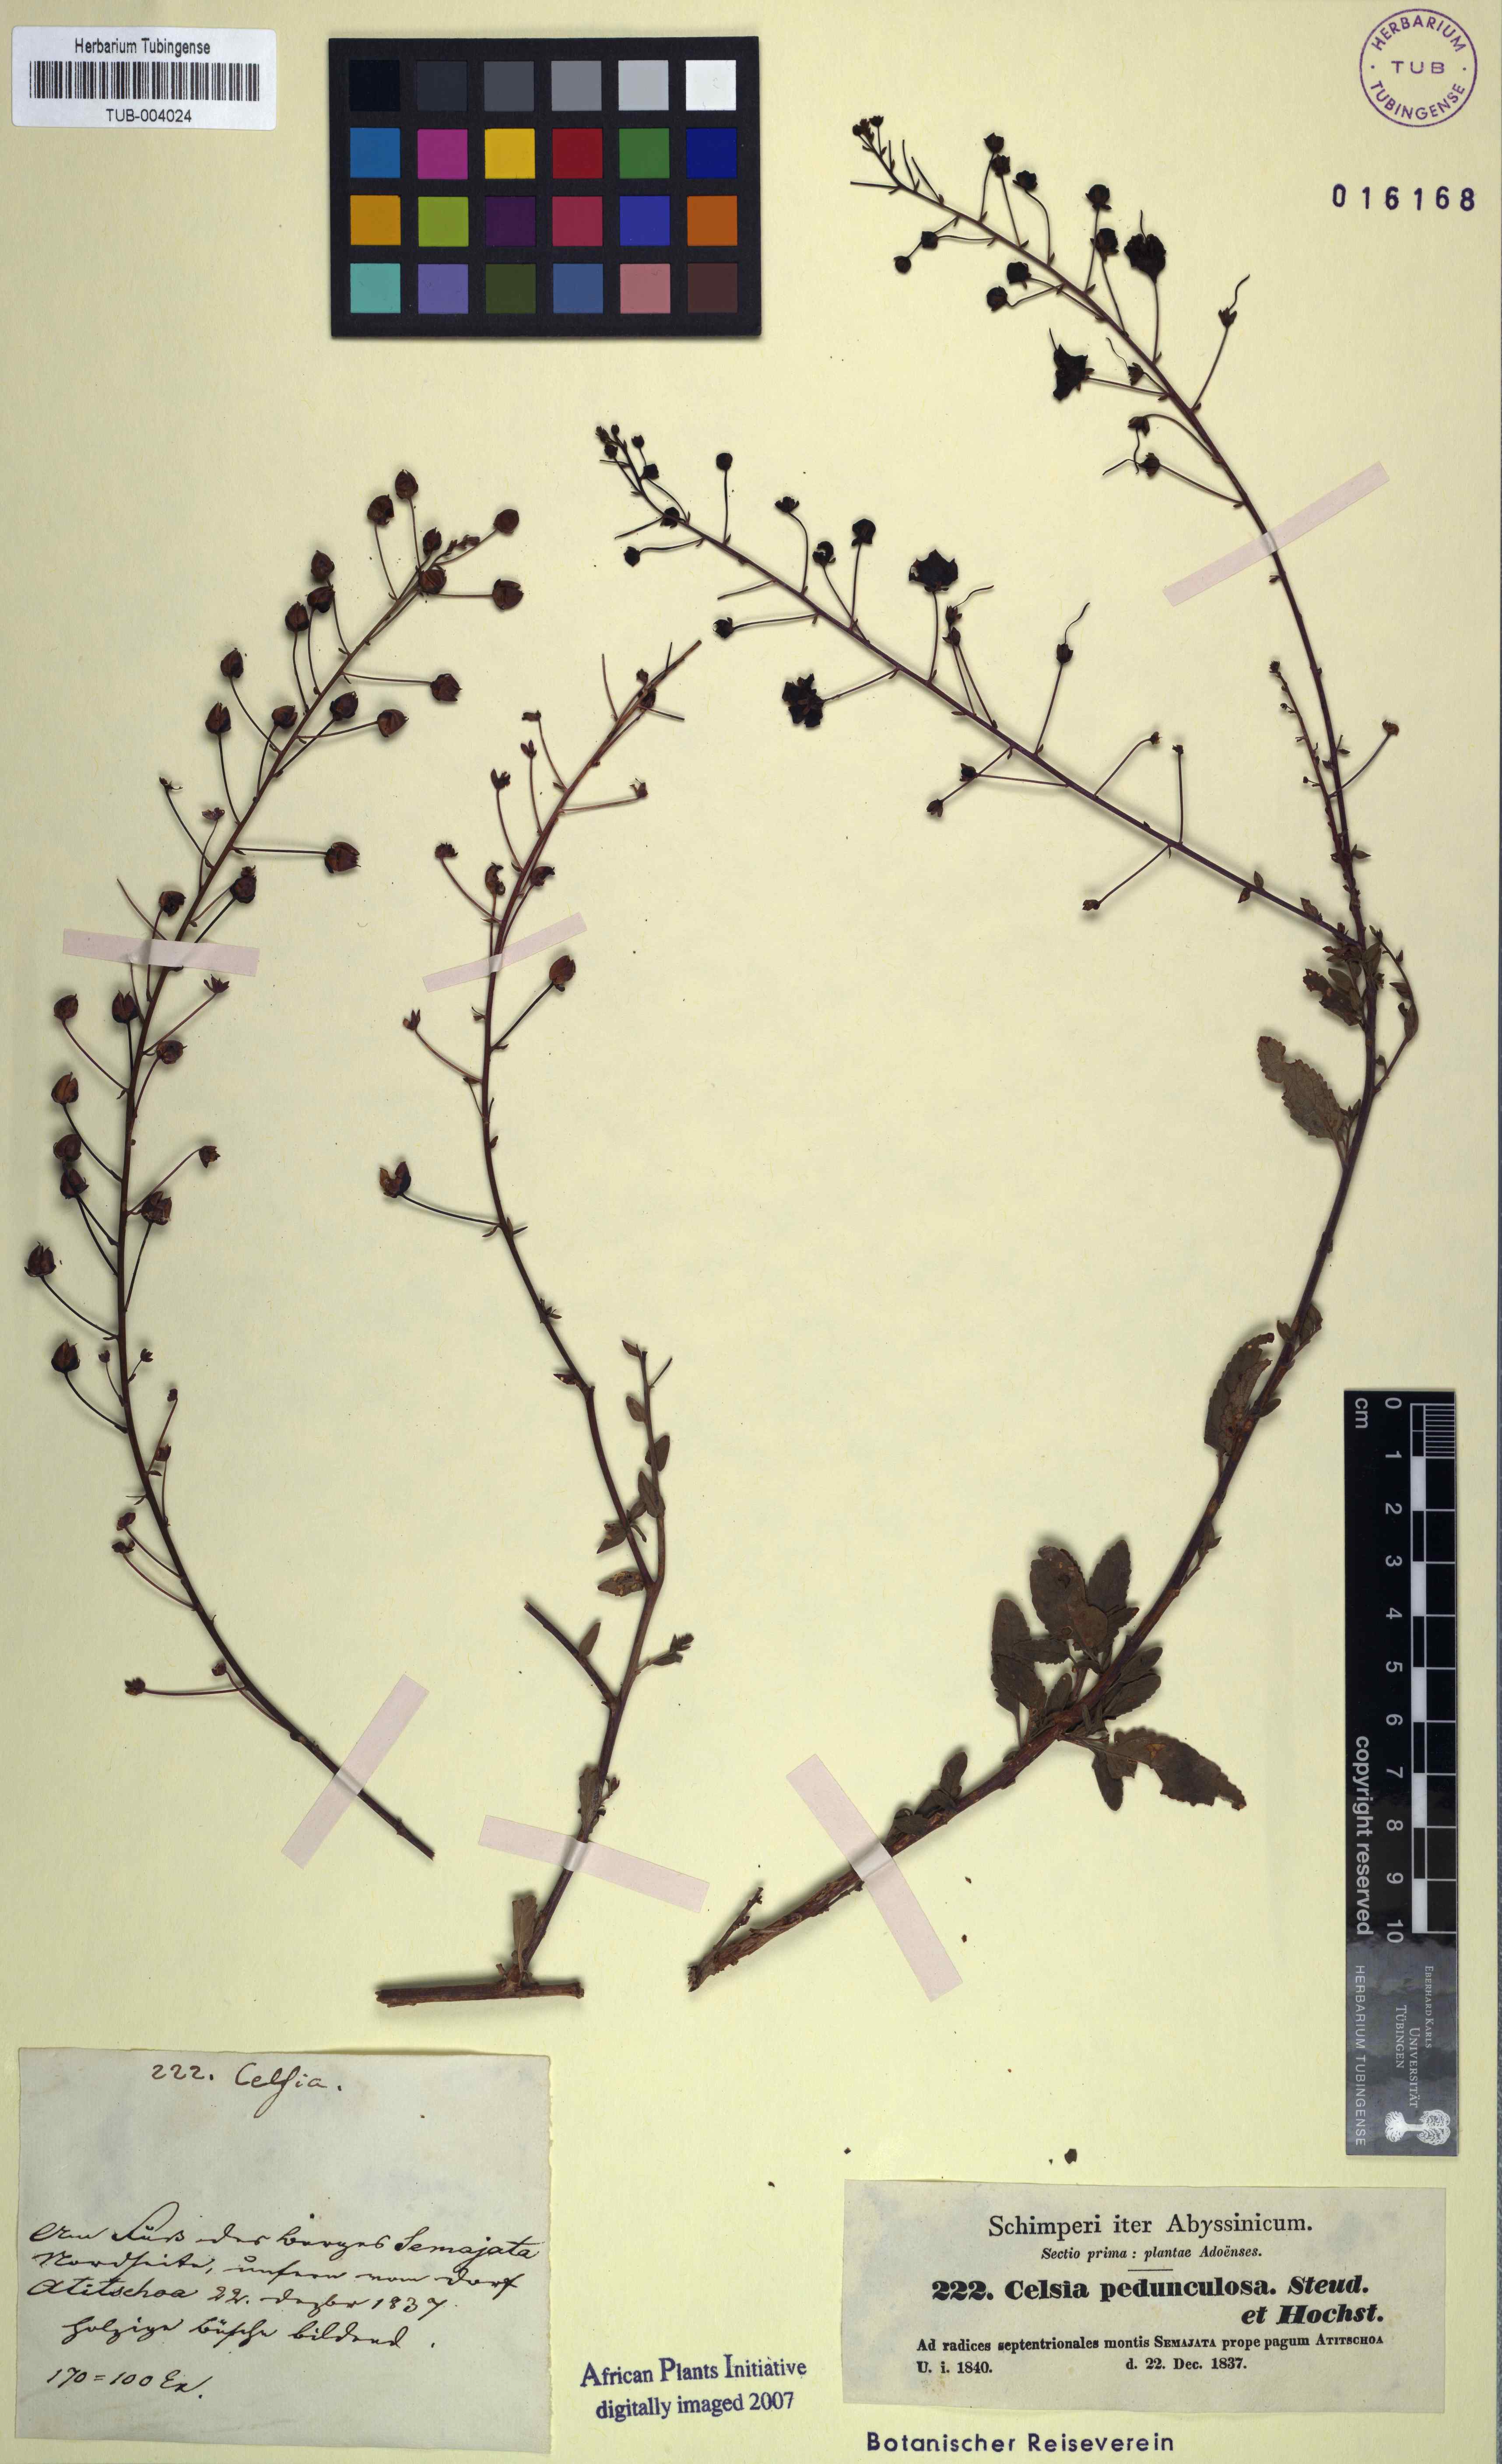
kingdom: Plantae
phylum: Tracheophyta
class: Magnoliopsida
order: Lamiales
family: Scrophulariaceae
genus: Verbascum
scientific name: Verbascum pedunculosum
